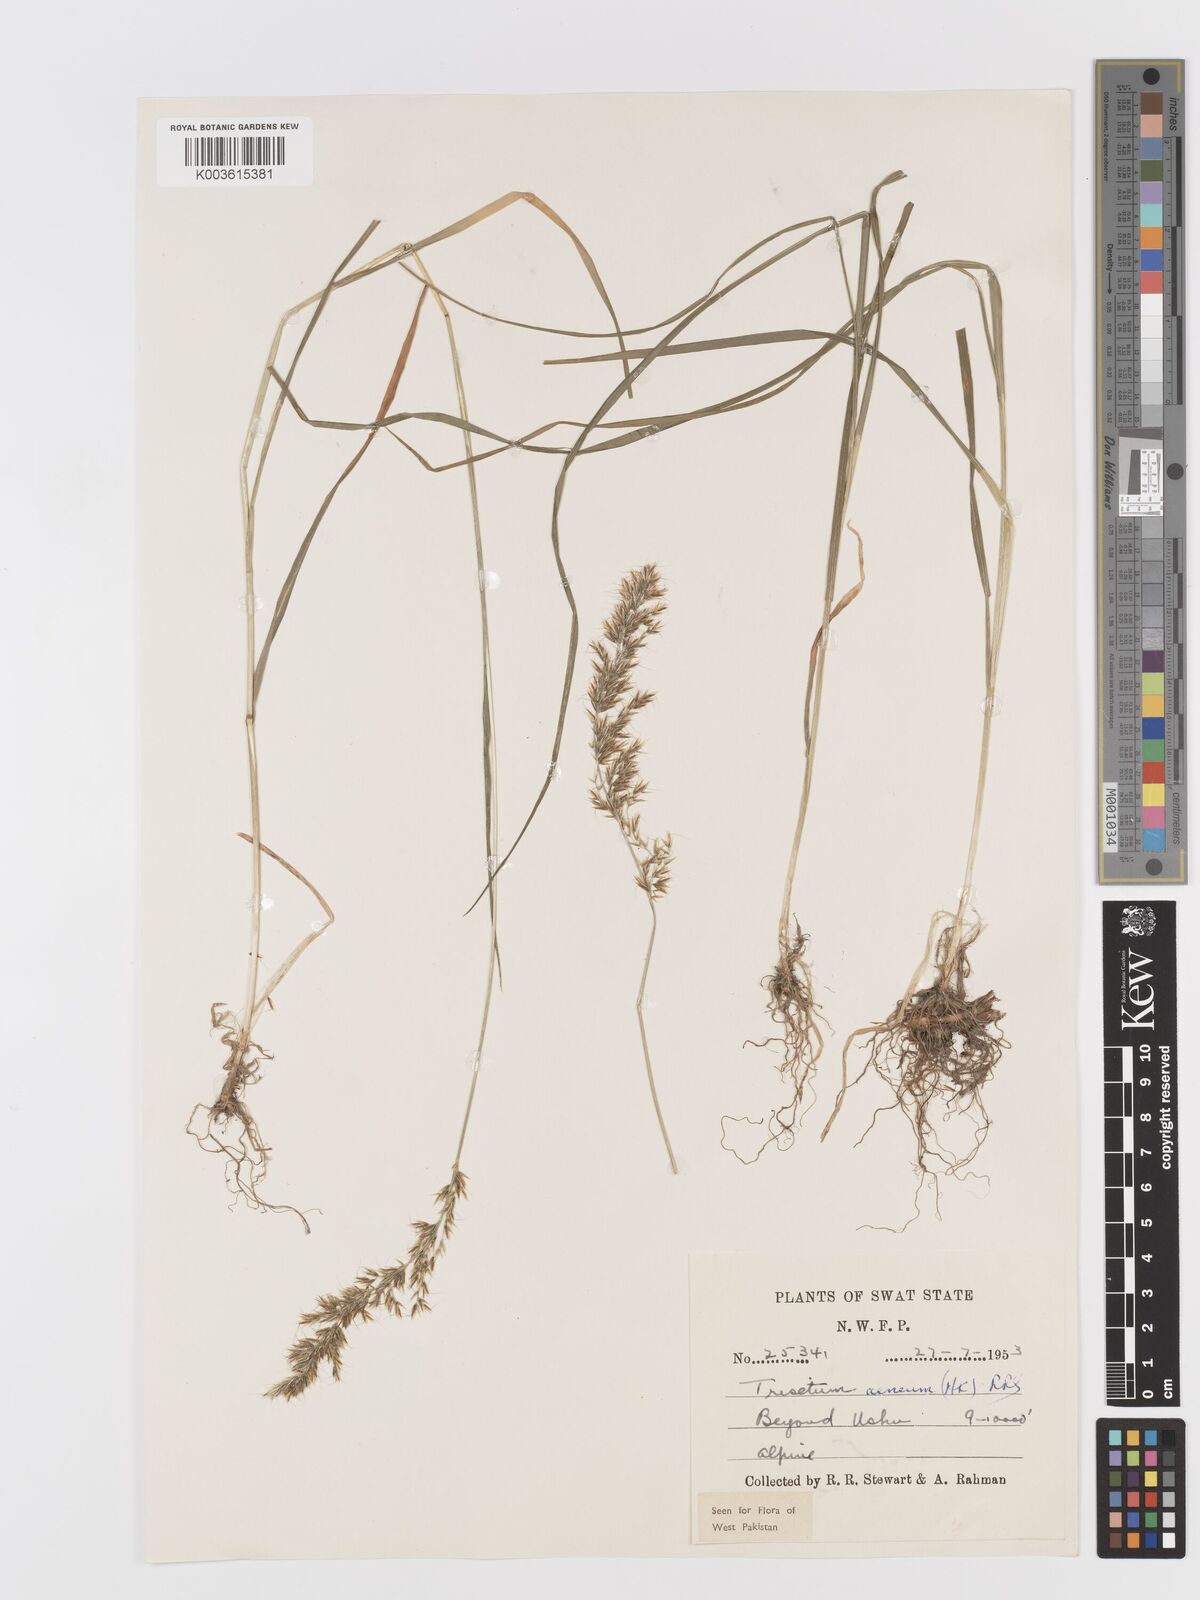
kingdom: Plantae
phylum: Tracheophyta
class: Liliopsida
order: Poales
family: Poaceae
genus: Sibirotrisetum
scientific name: Sibirotrisetum aeneum
